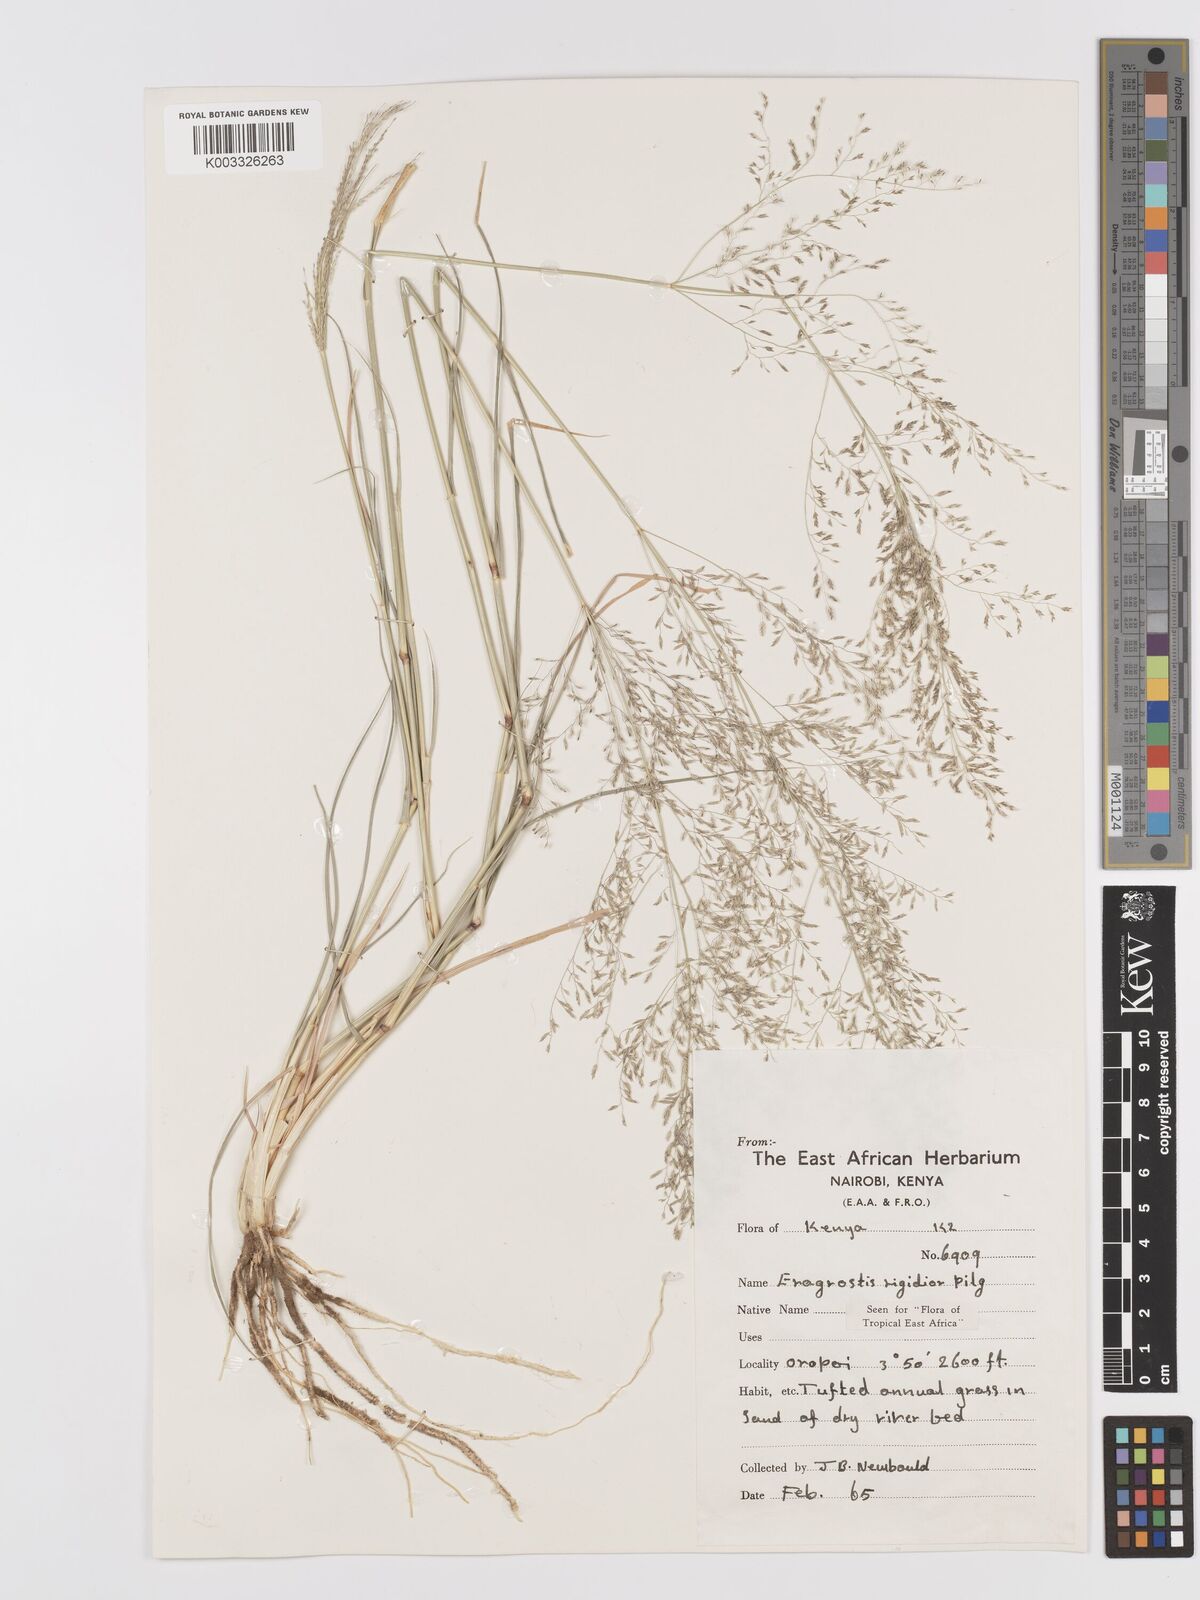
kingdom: Plantae
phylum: Tracheophyta
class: Liliopsida
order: Poales
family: Poaceae
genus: Eragrostis
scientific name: Eragrostis cylindriflora
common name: Cylinderflower lovegrass
